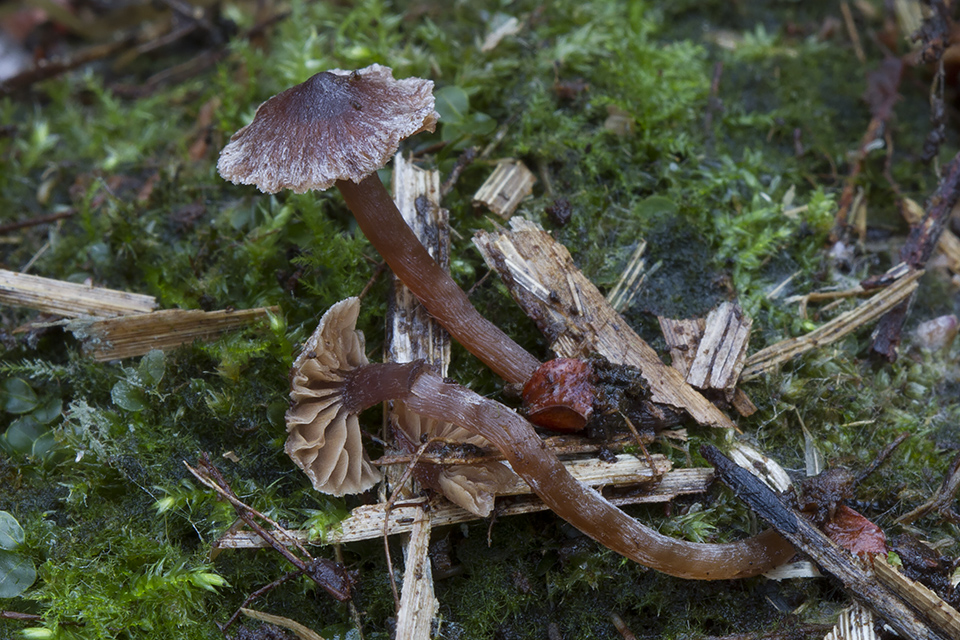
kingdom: Fungi
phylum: Basidiomycota
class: Agaricomycetes
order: Agaricales
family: Cortinariaceae
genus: Cortinarius
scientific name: Cortinarius
